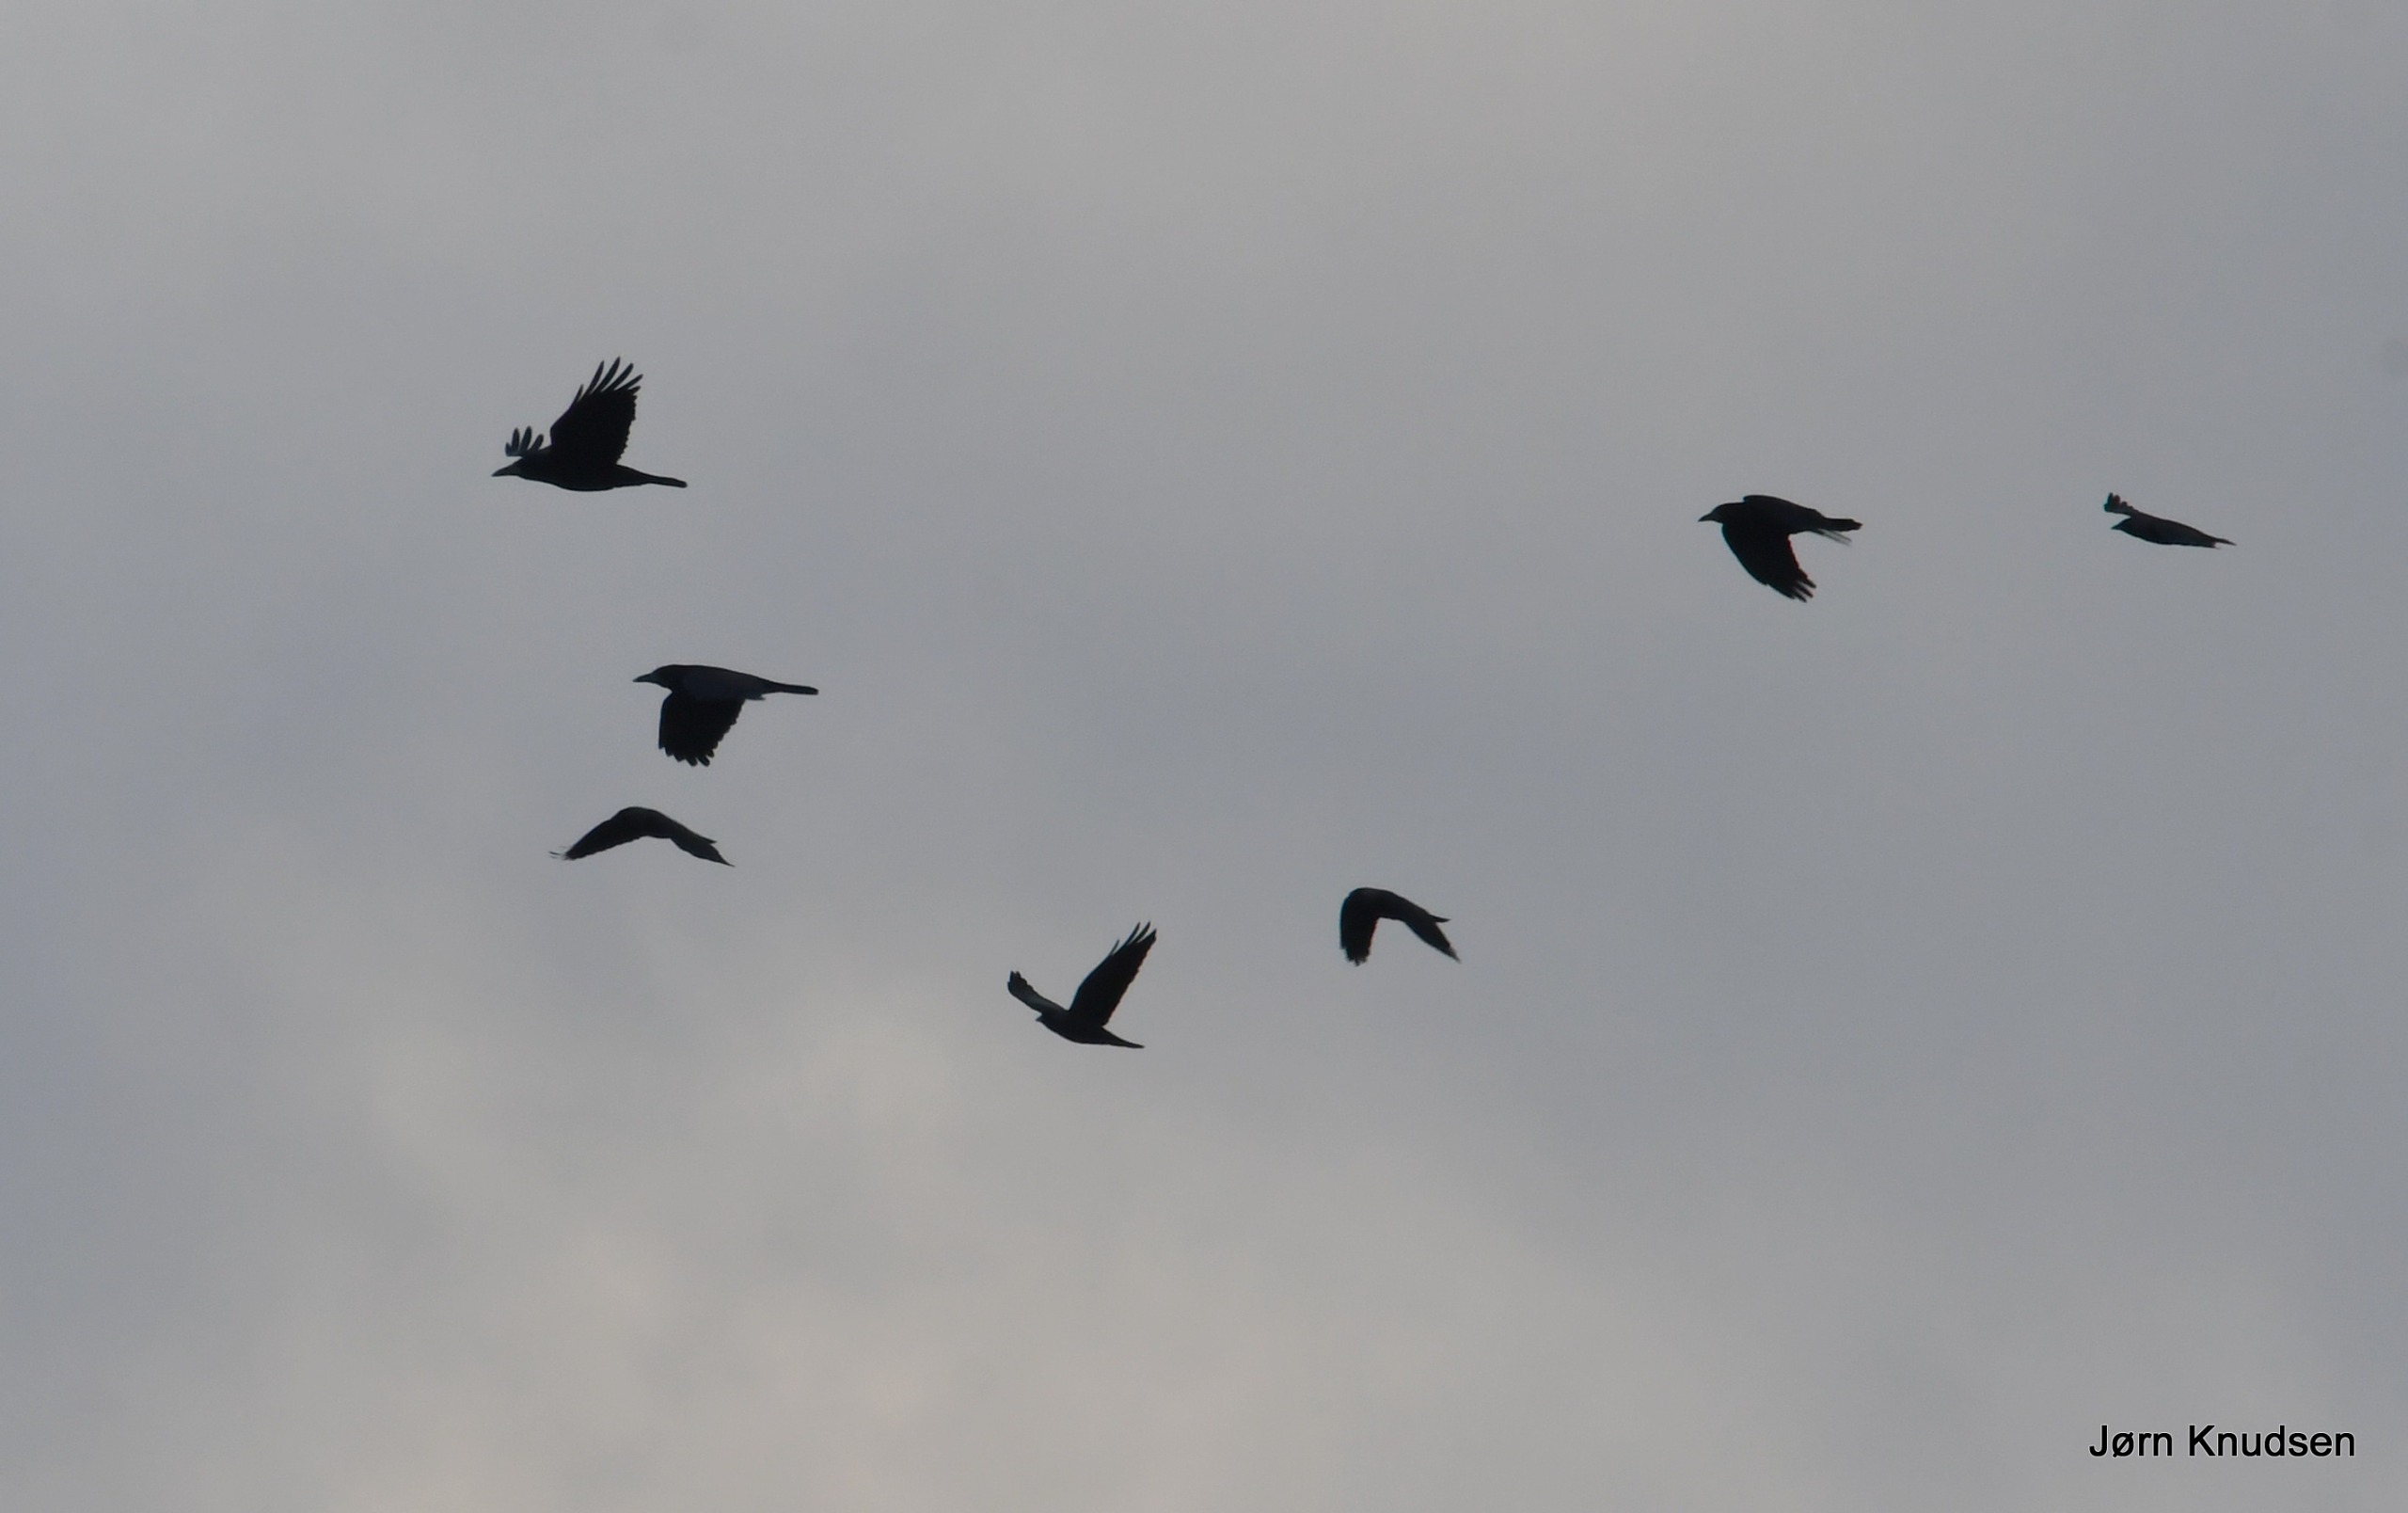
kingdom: Animalia
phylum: Chordata
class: Aves
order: Passeriformes
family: Corvidae
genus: Corvus
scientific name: Corvus frugilegus
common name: Råge
